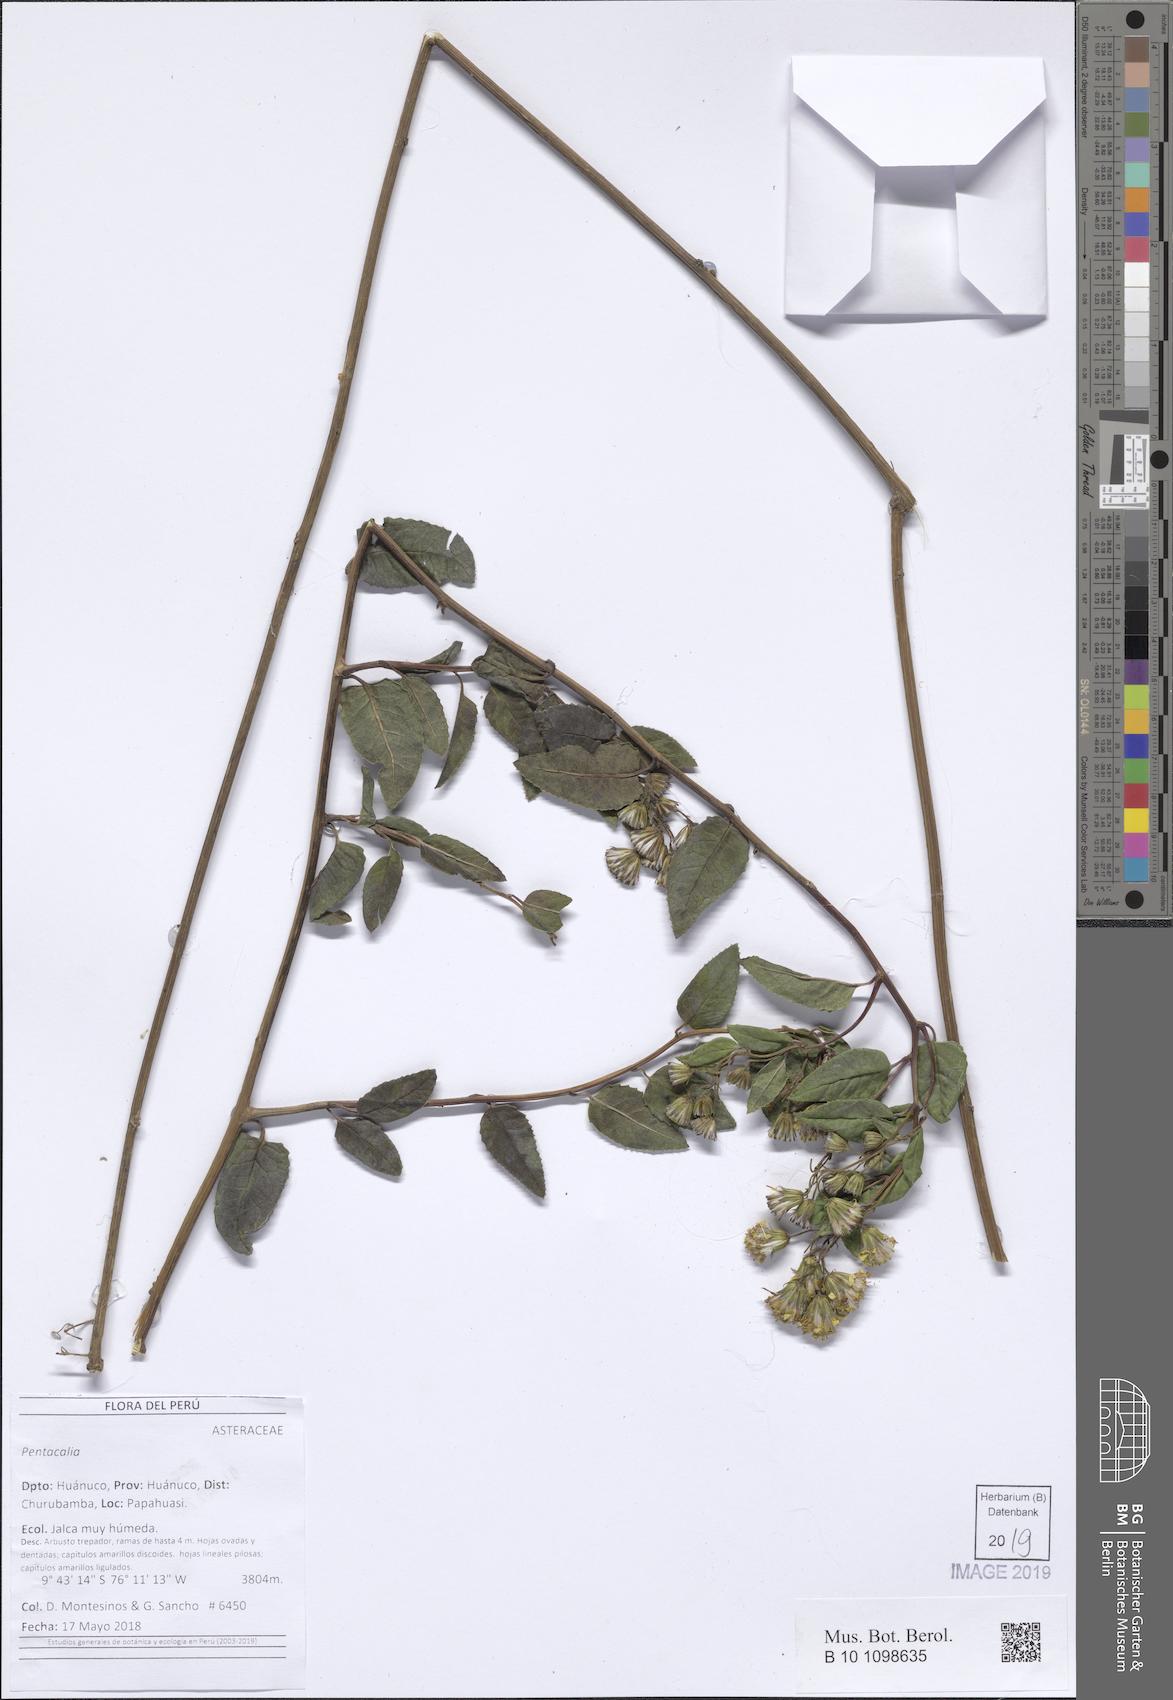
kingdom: Plantae
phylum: Tracheophyta
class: Magnoliopsida
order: Asterales
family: Asteraceae
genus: Pentacalia
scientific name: Pentacalia wurdackii
